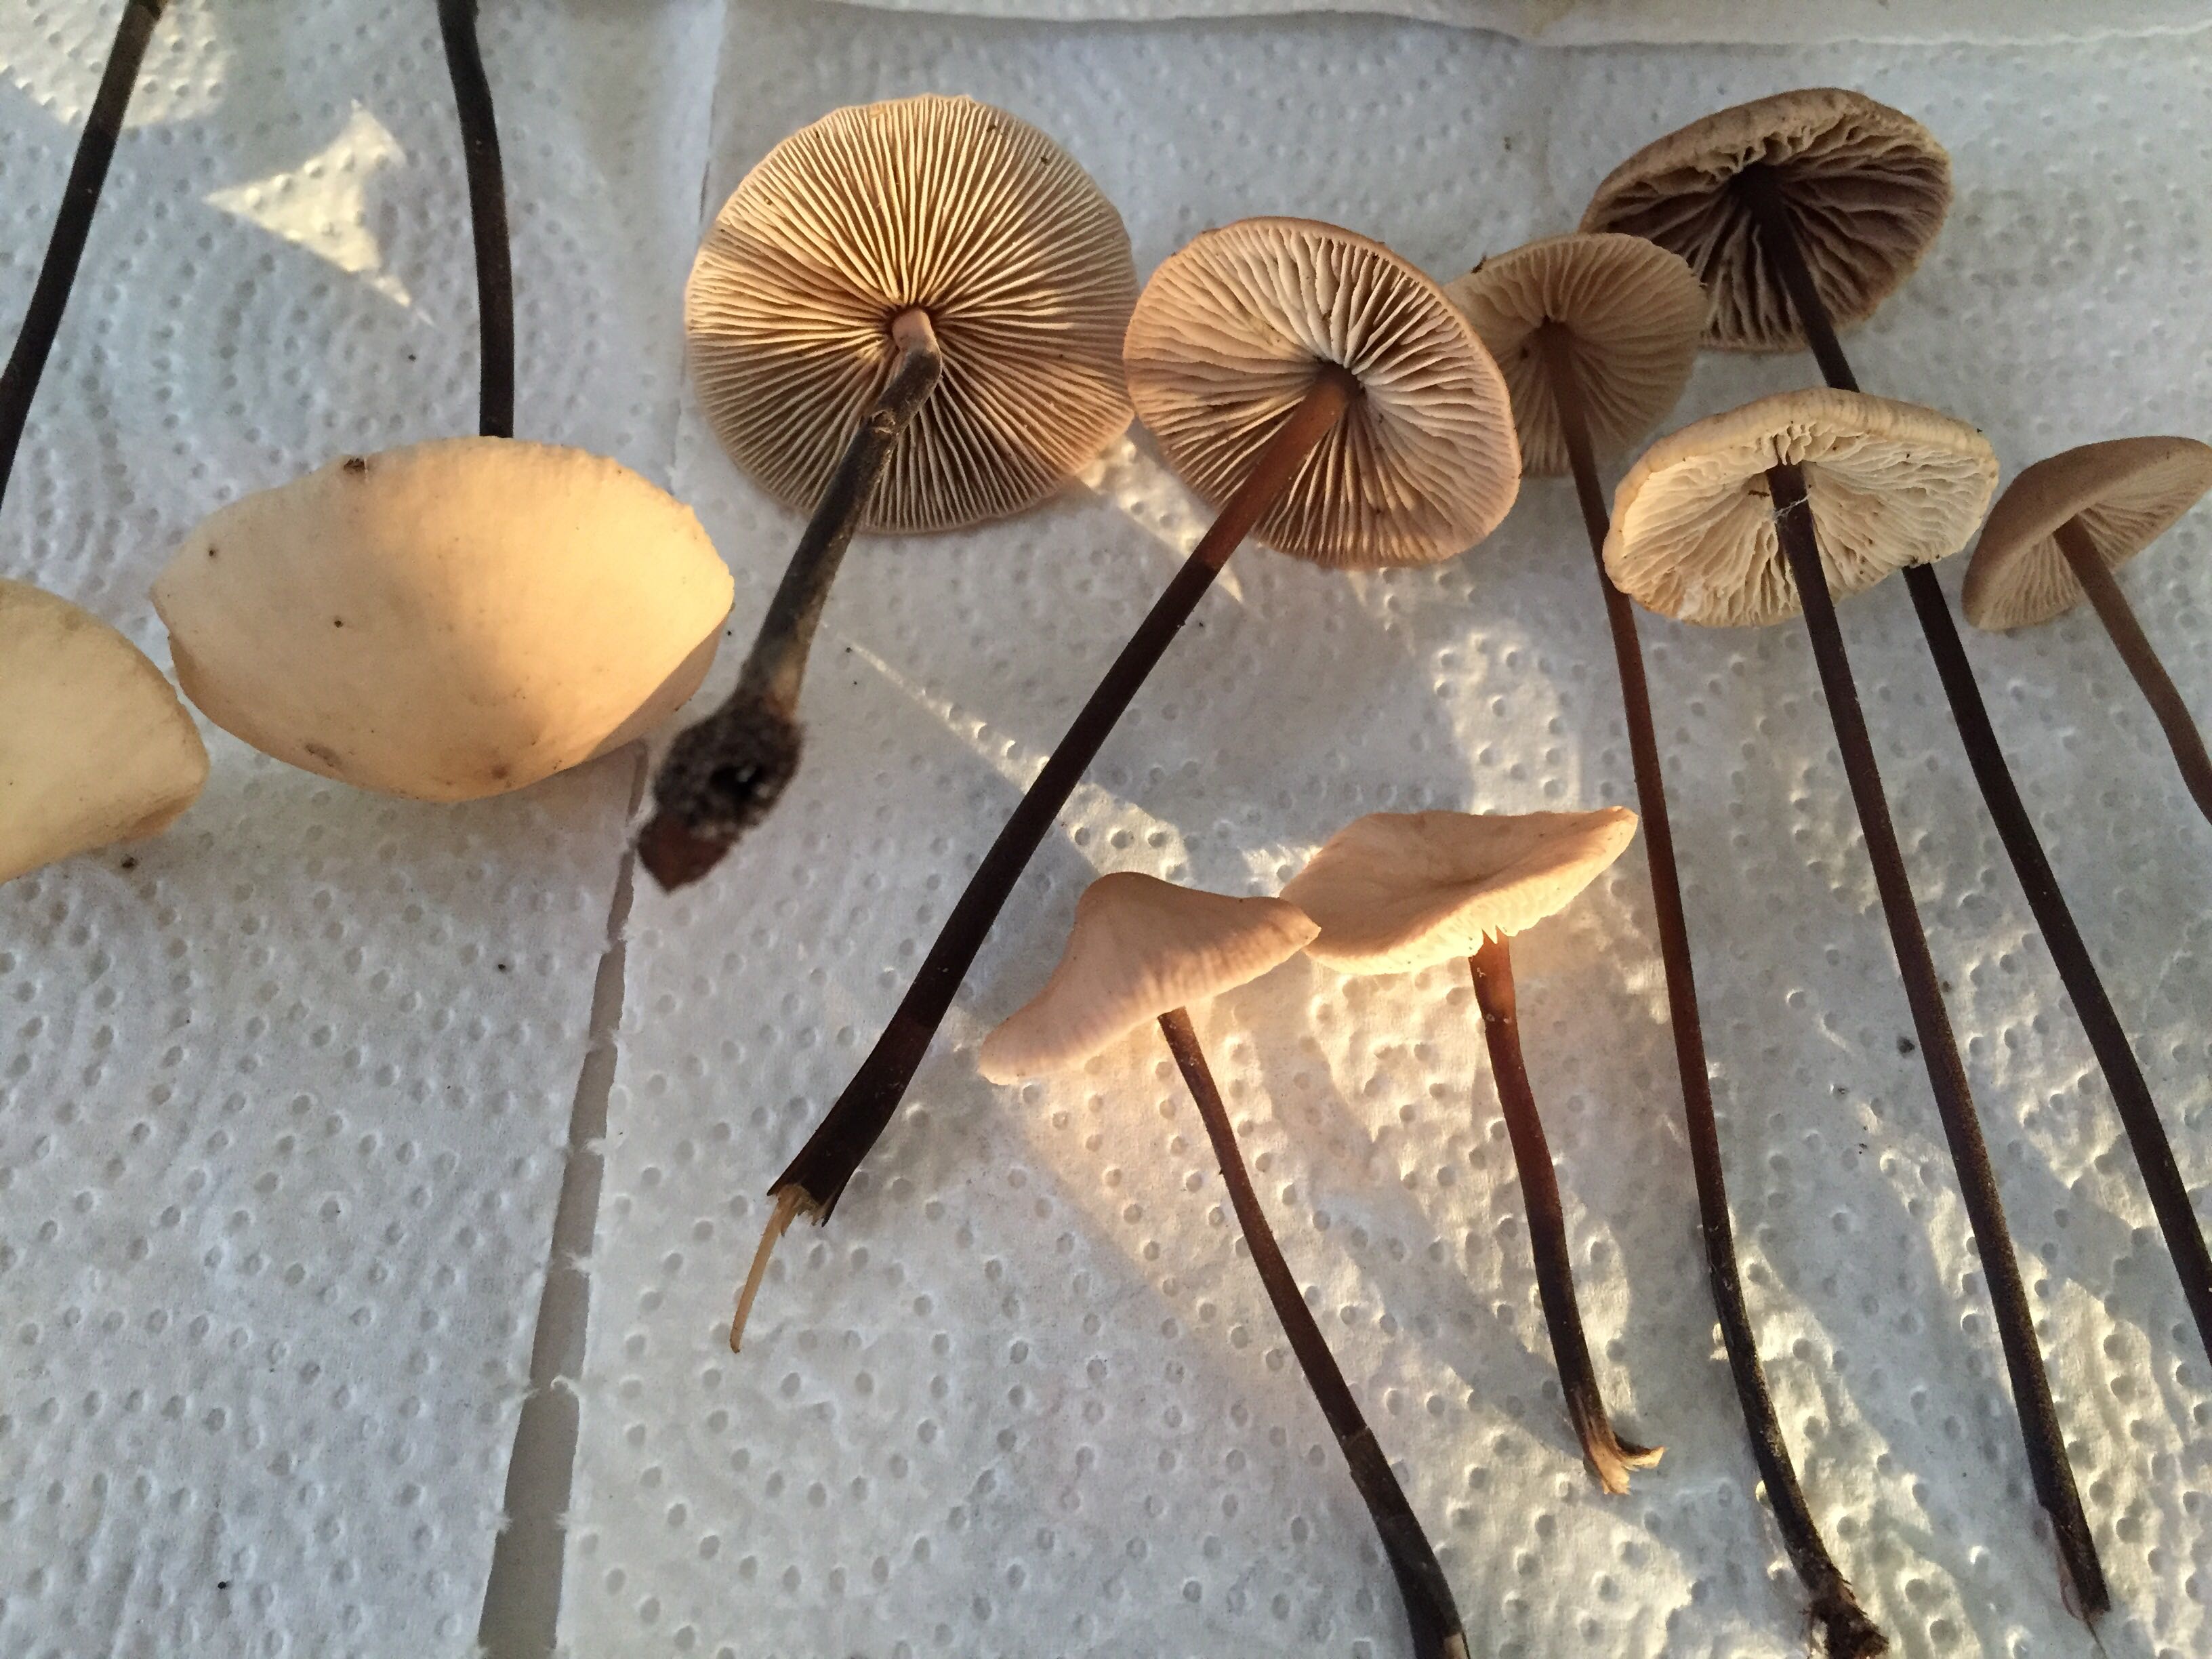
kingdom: Fungi
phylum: Basidiomycota
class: Agaricomycetes
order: Agaricales
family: Omphalotaceae
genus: Mycetinis
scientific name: Mycetinis alliaceus
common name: stor løghat
